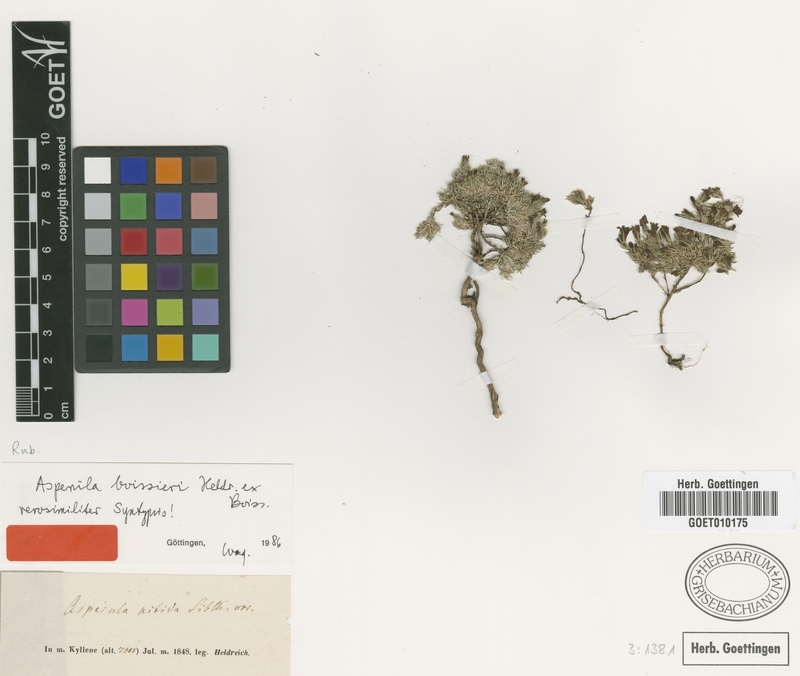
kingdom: Plantae
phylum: Tracheophyta
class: Magnoliopsida
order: Gentianales
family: Rubiaceae
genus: Cynanchica
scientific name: Cynanchica boissieri
